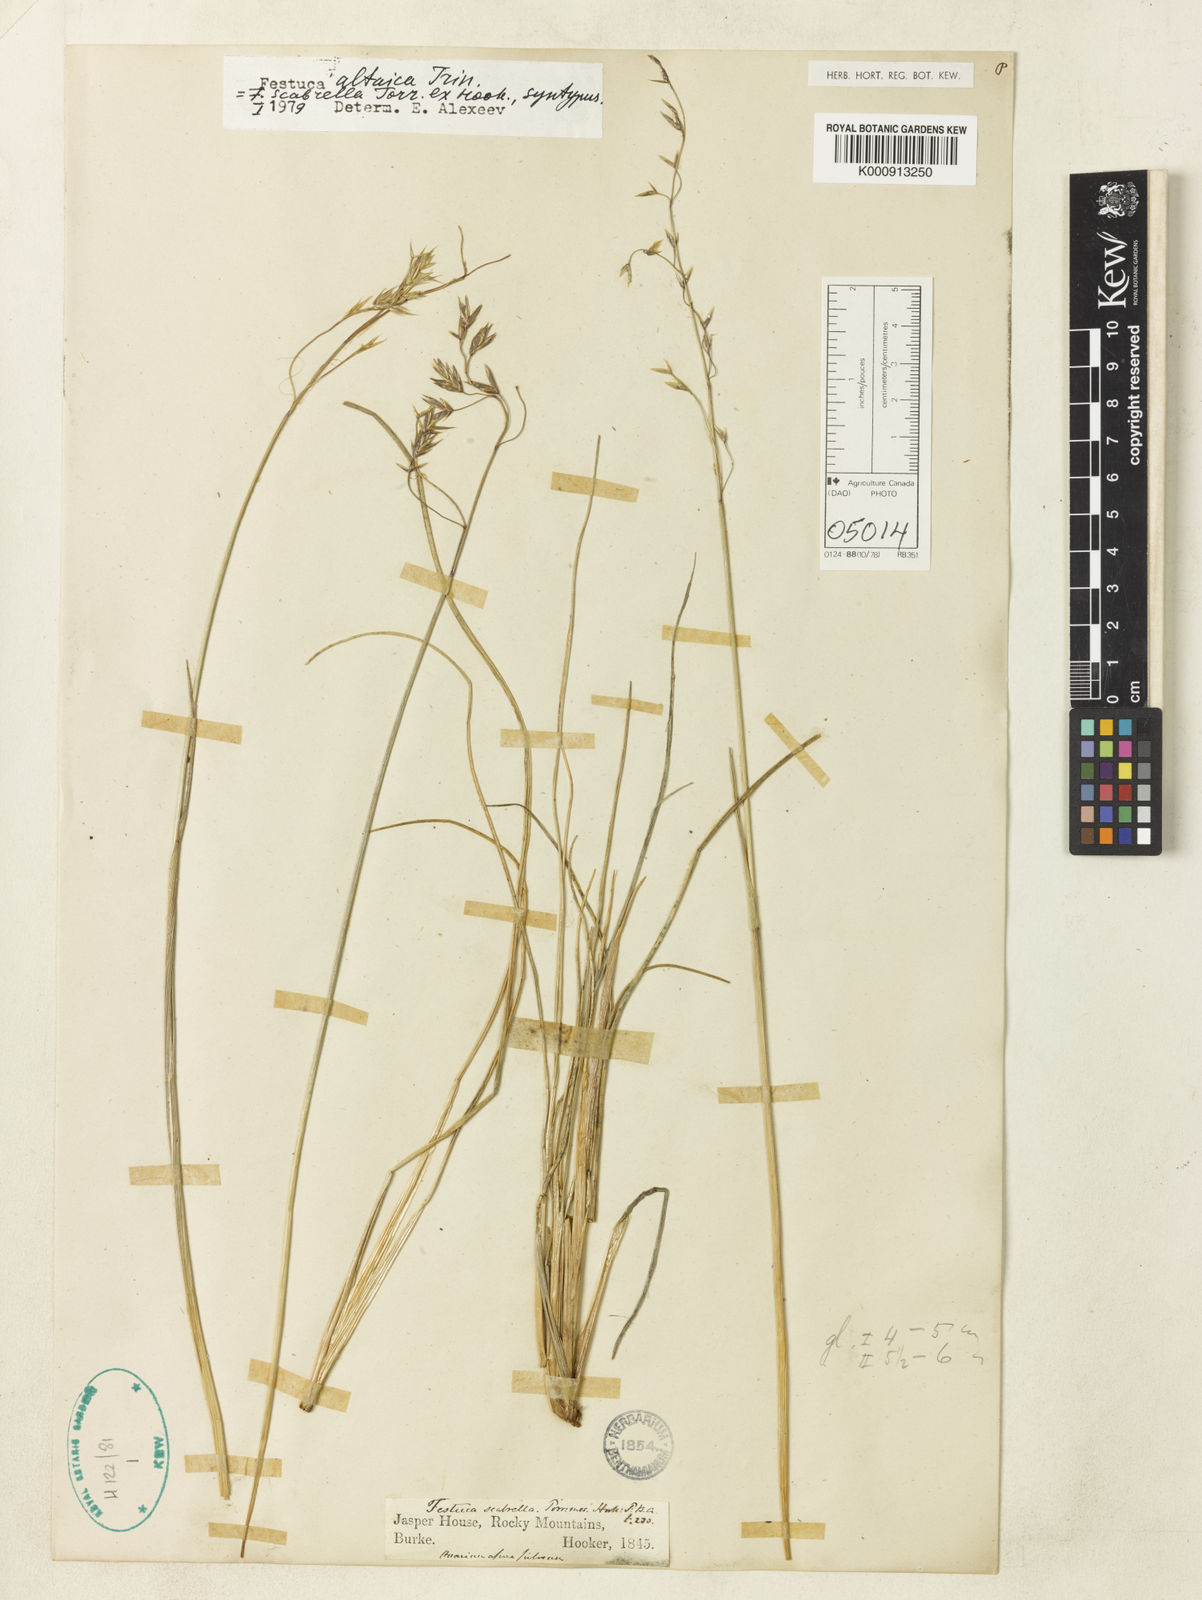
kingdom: Plantae
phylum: Tracheophyta
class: Liliopsida
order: Poales
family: Poaceae
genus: Festuca
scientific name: Festuca altaica
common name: Northern rough fescue
